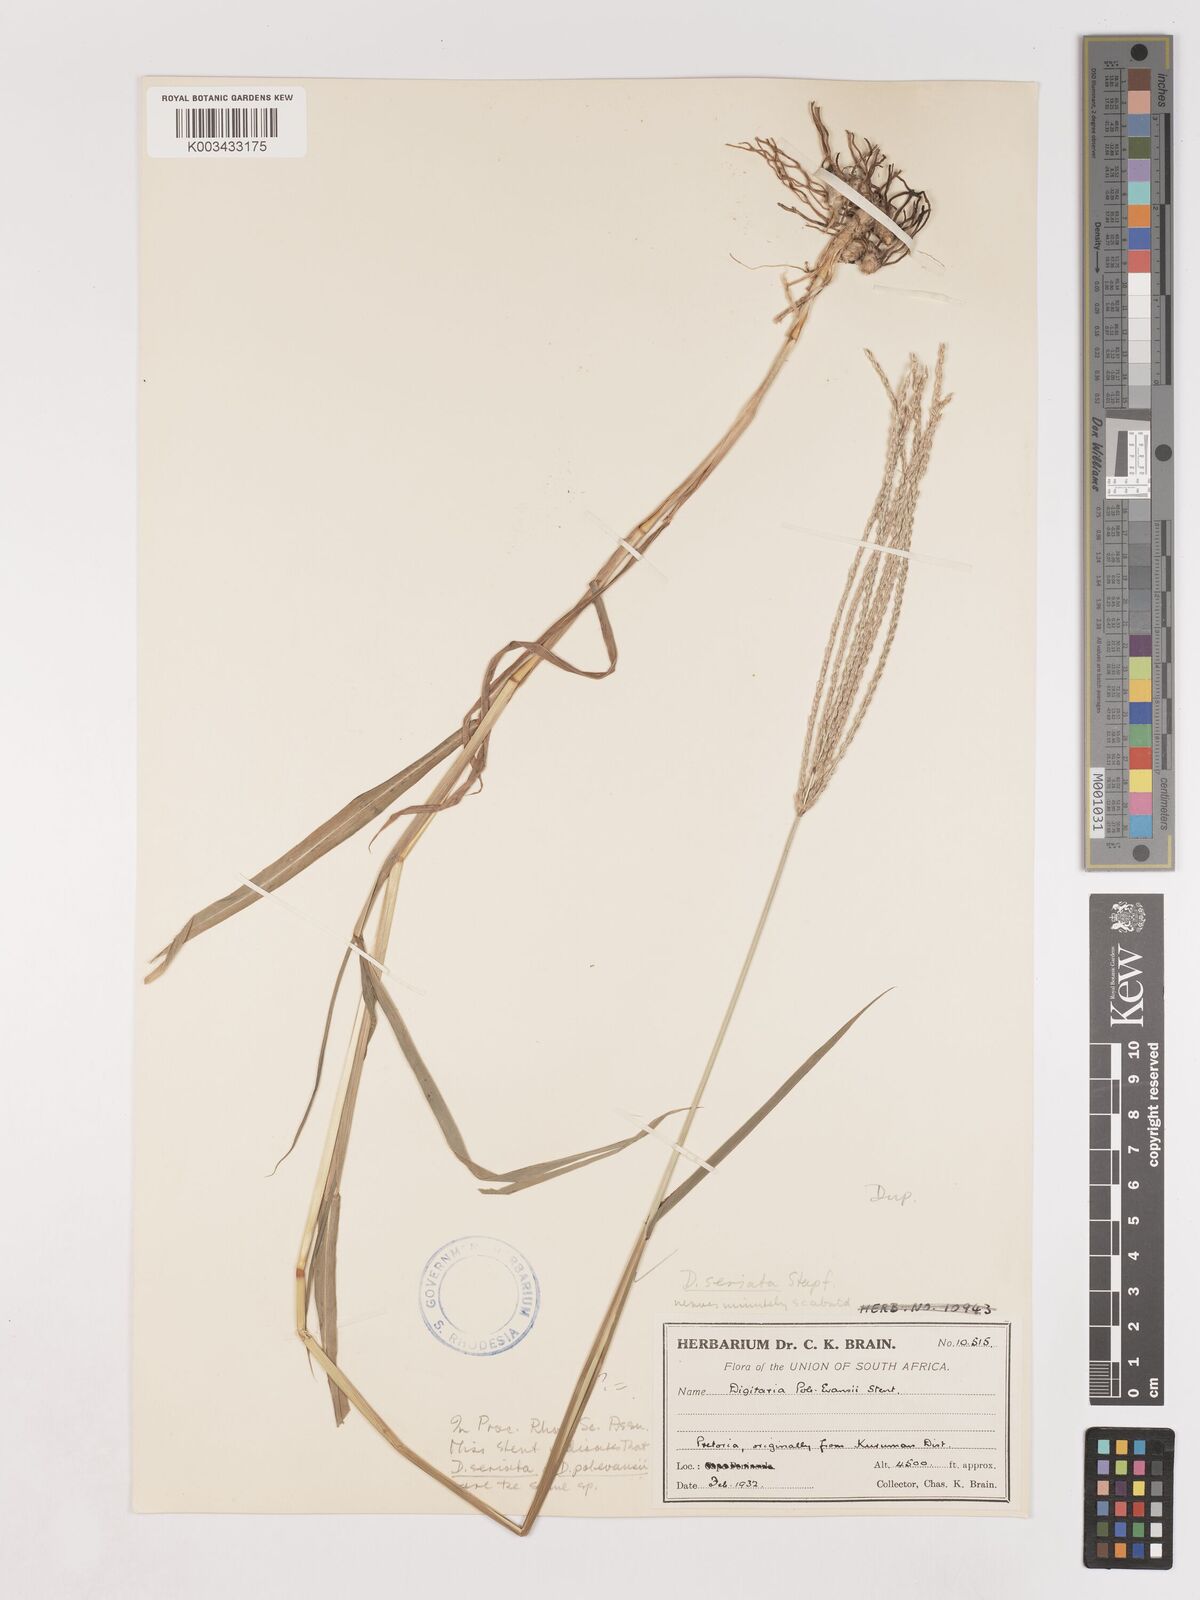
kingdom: Plantae
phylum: Tracheophyta
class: Liliopsida
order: Poales
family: Poaceae
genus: Digitaria
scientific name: Digitaria milanjiana
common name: Madagascar crabgrass
